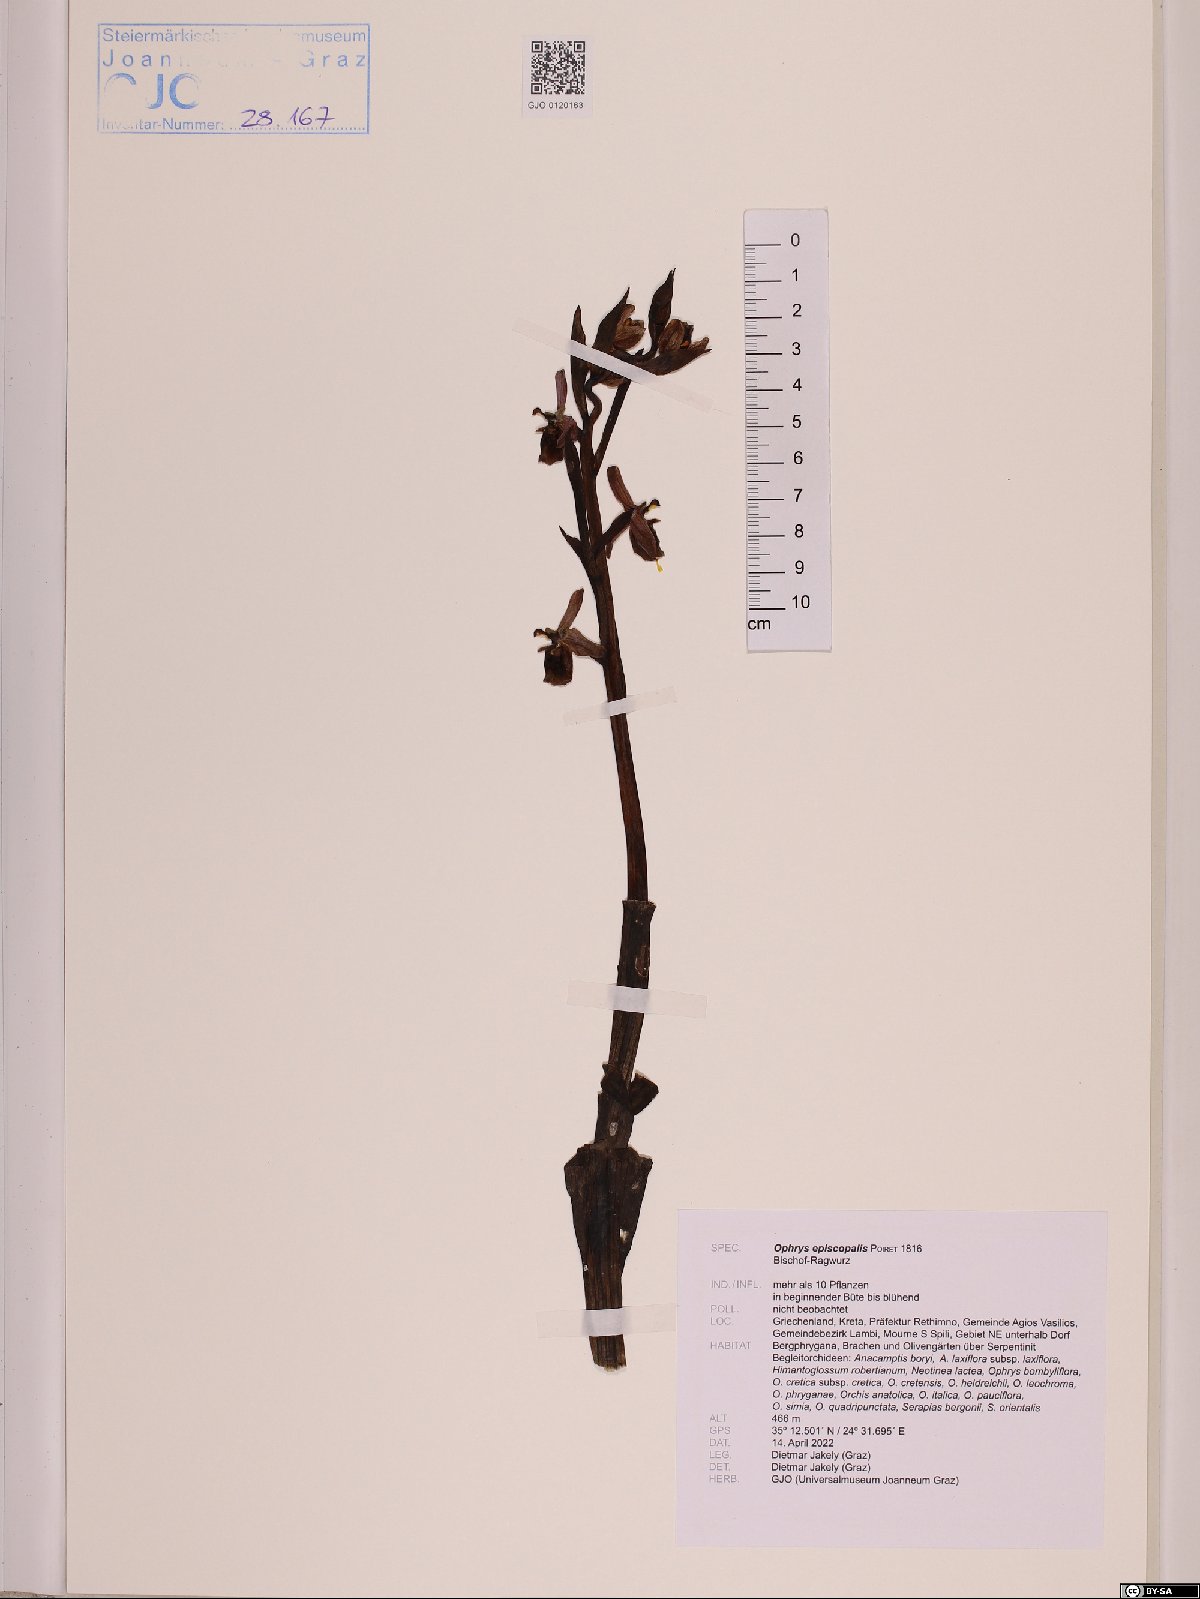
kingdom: Plantae
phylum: Tracheophyta
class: Liliopsida
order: Asparagales
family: Orchidaceae
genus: Ophrys
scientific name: Ophrys holosericea
